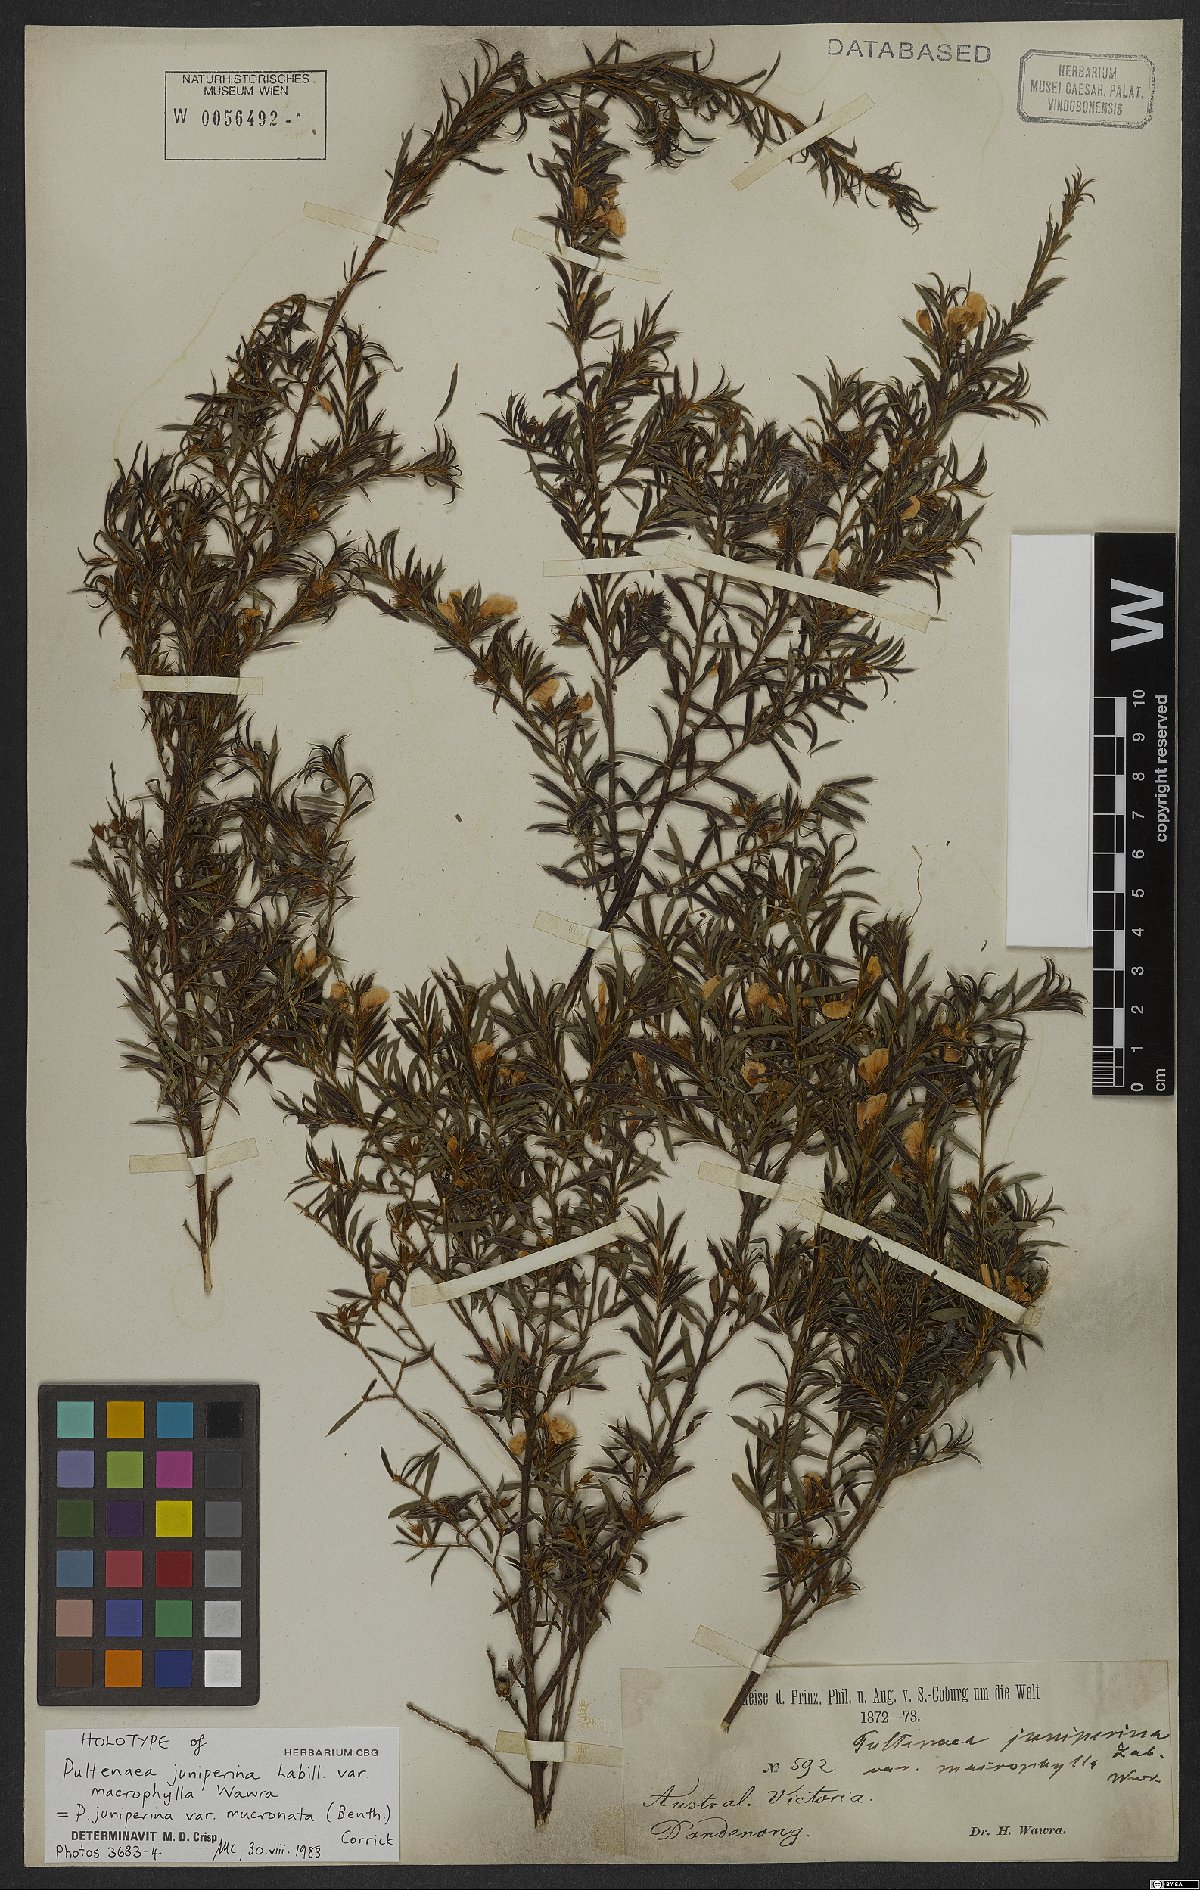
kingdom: Plantae
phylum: Tracheophyta
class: Magnoliopsida
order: Fabales
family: Fabaceae
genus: Pultenaea
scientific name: Pultenaea blakelyi
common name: Blakely's bush-pea
